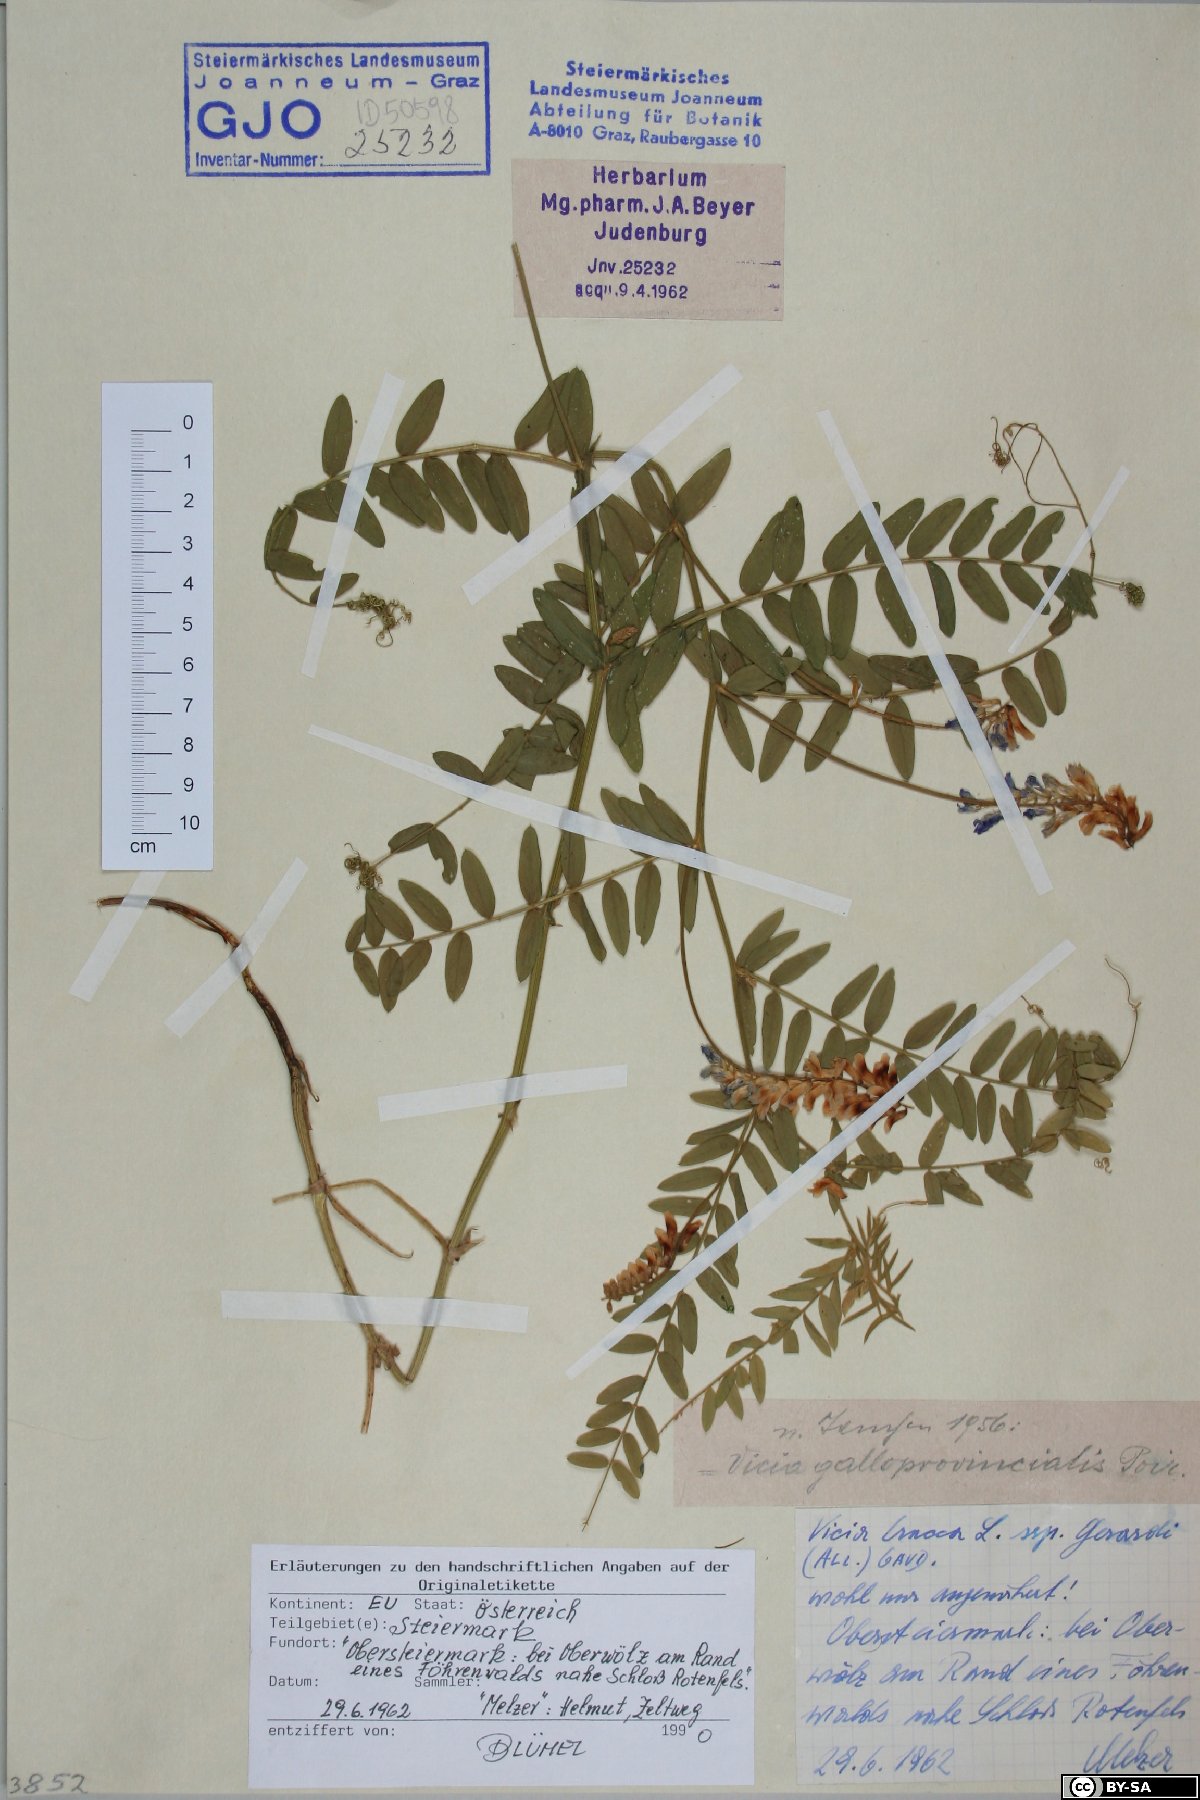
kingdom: Plantae
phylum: Tracheophyta
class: Magnoliopsida
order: Fabales
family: Fabaceae
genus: Vicia
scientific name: Vicia incana
